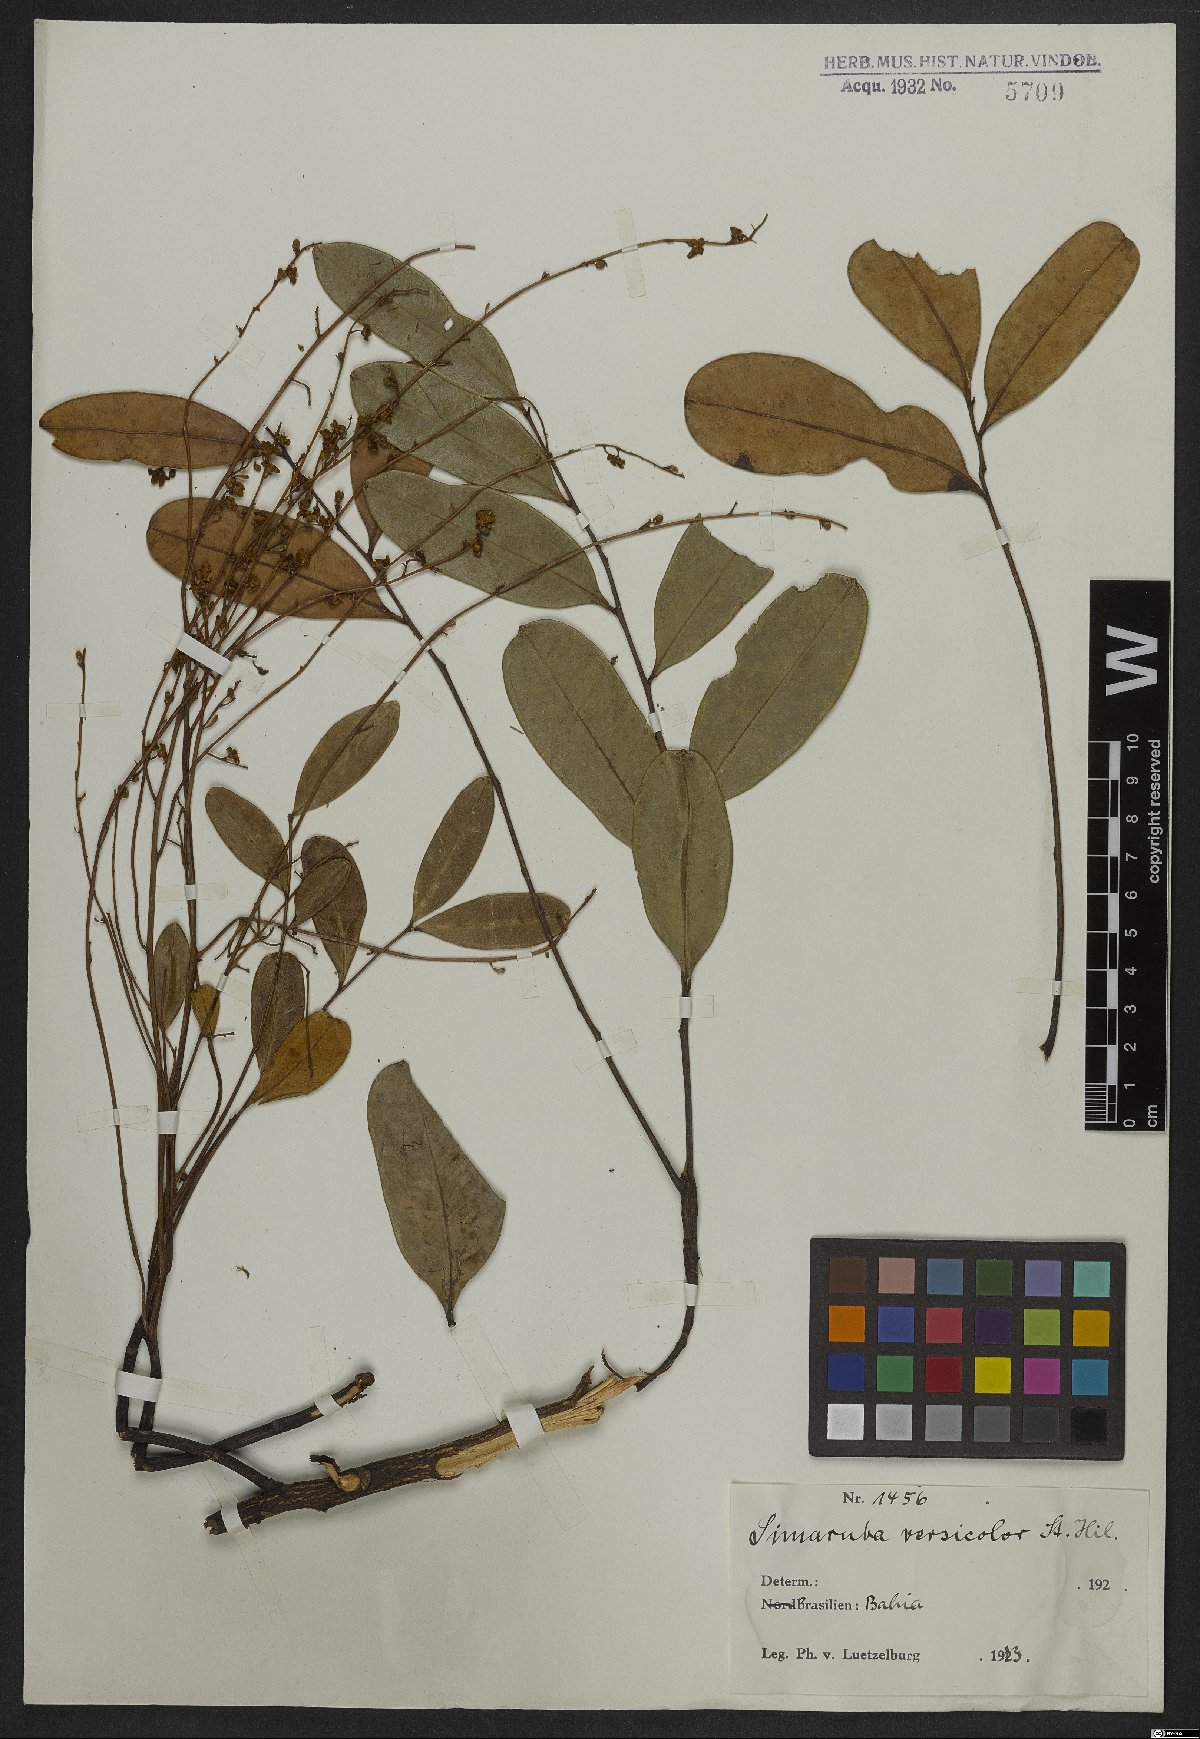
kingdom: Plantae
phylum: Tracheophyta
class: Magnoliopsida
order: Sapindales
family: Simaroubaceae
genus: Simarouba
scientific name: Simarouba versicolor
